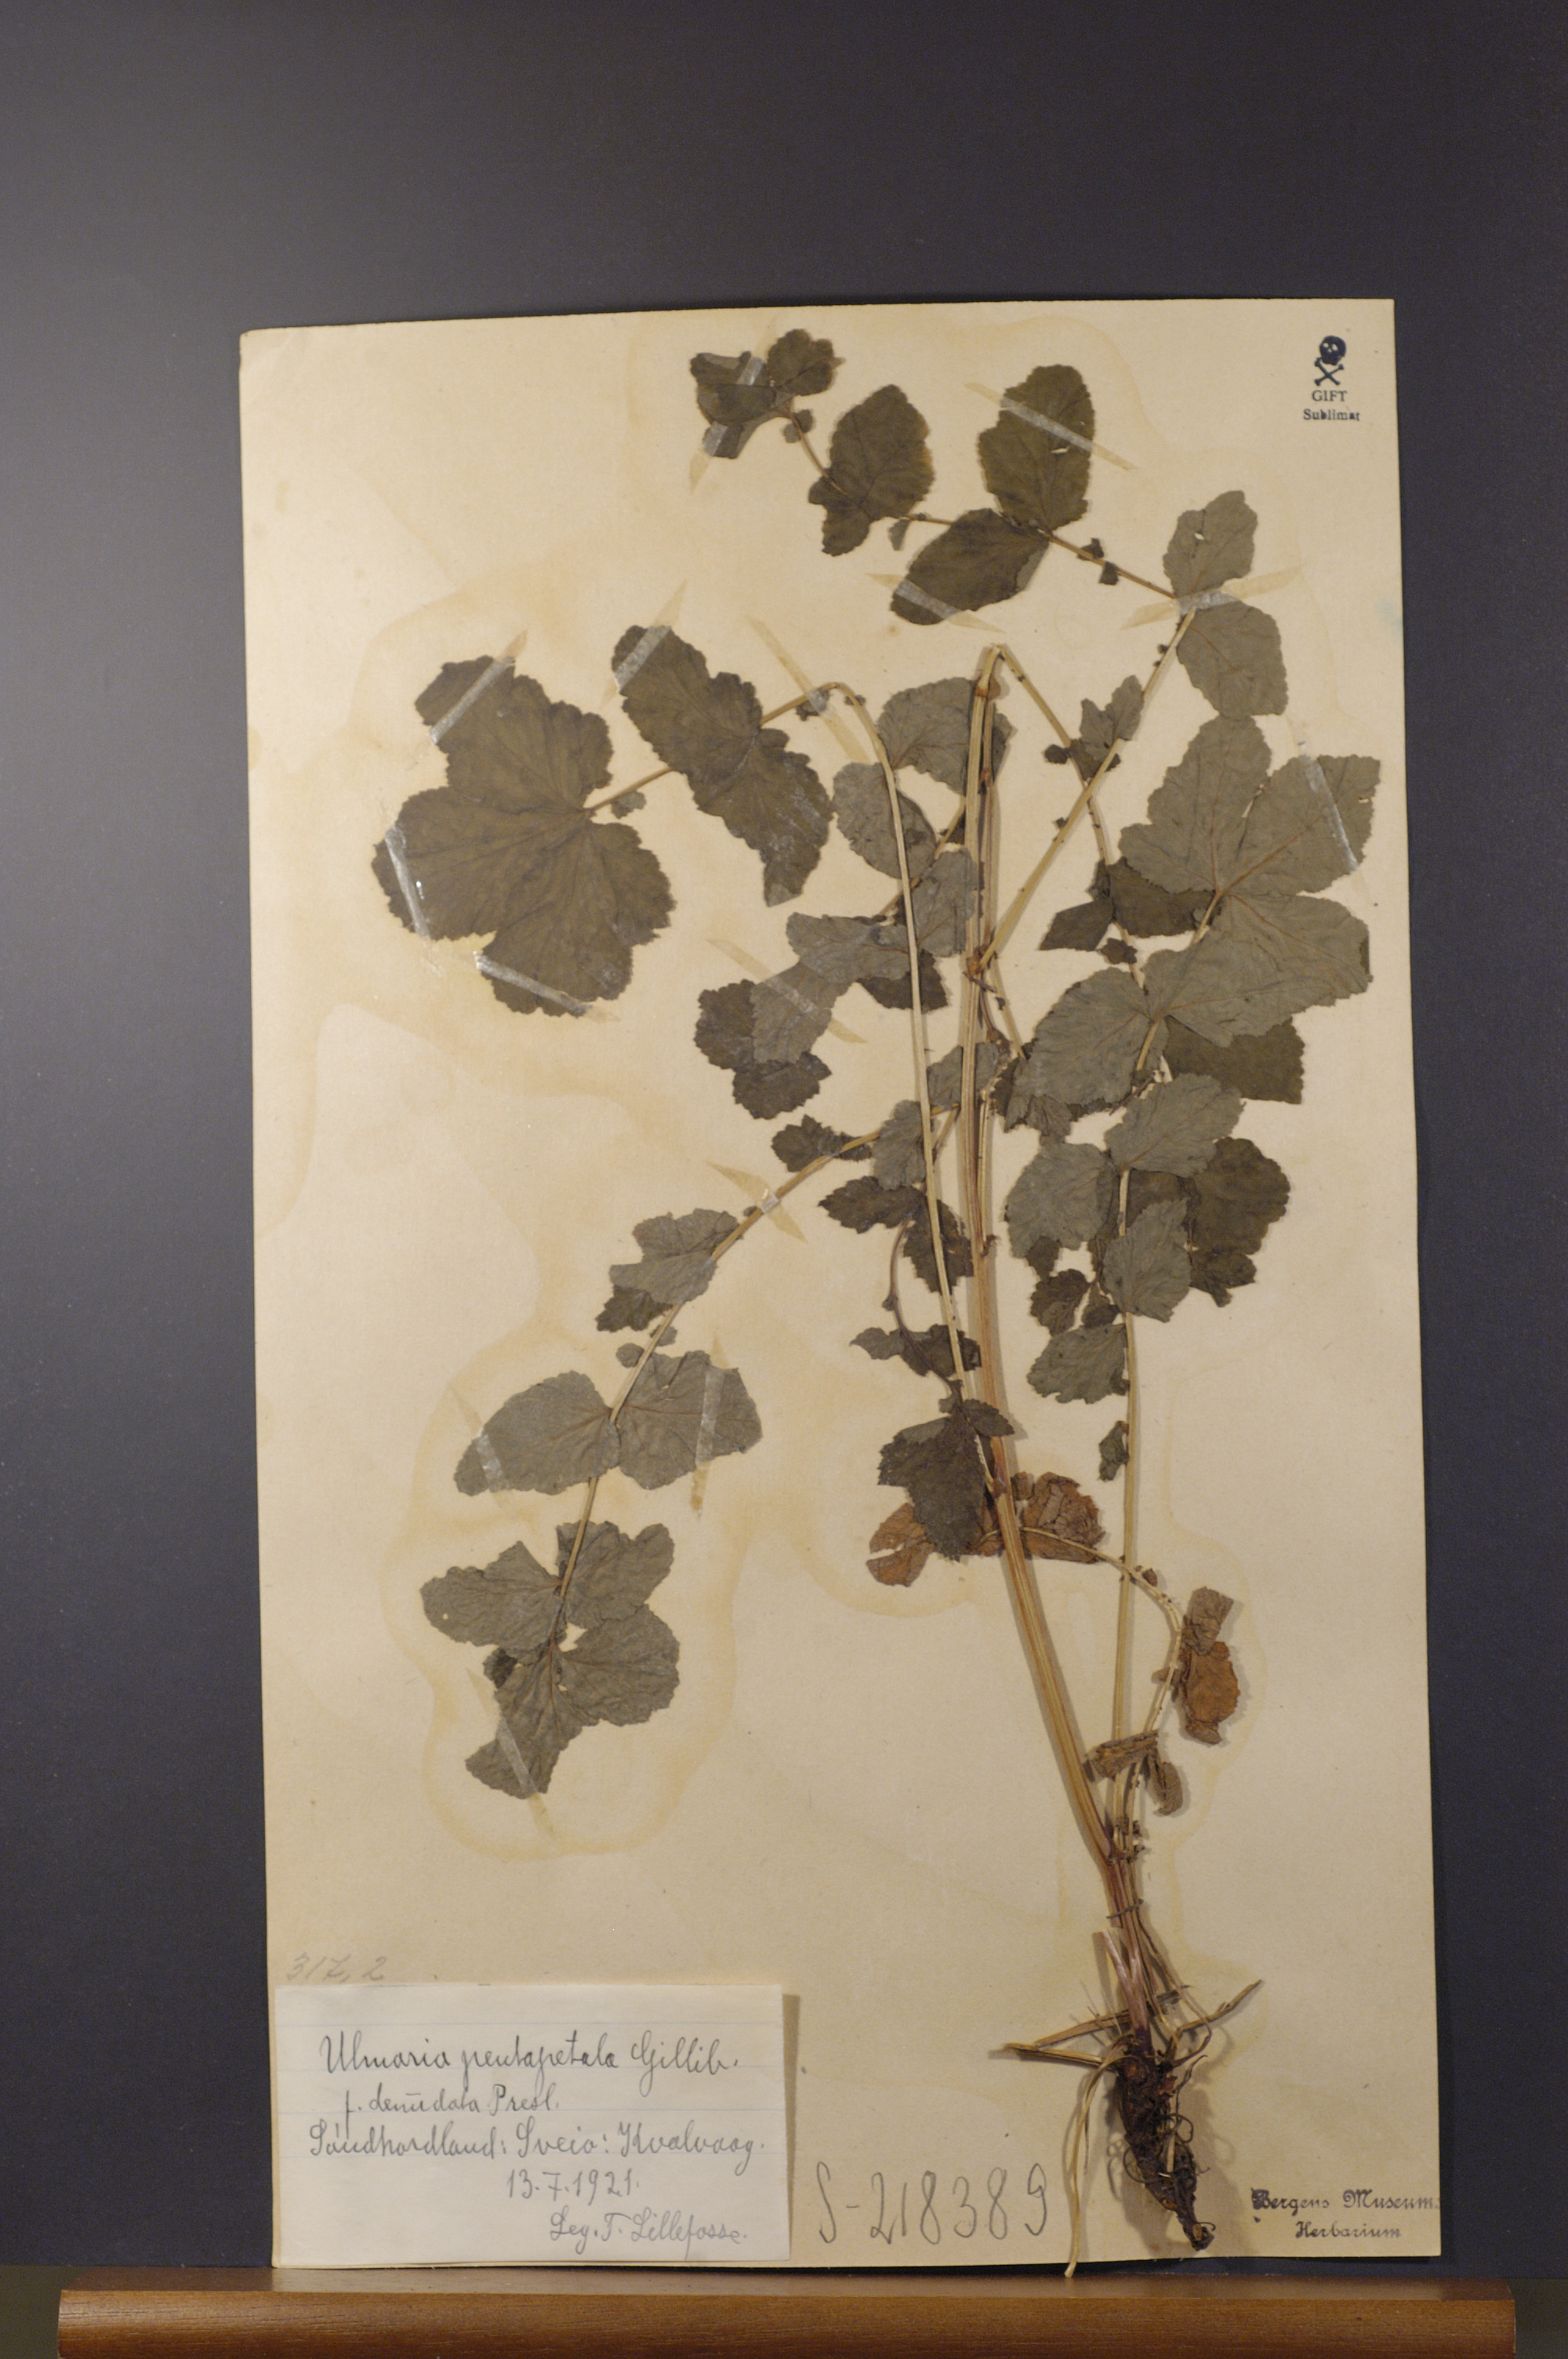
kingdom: Plantae
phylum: Tracheophyta
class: Magnoliopsida
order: Rosales
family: Rosaceae
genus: Filipendula
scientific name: Filipendula ulmaria
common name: Meadowsweet
